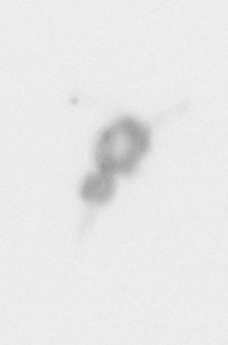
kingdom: Animalia
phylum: Arthropoda
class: Copepoda
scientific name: Copepoda
